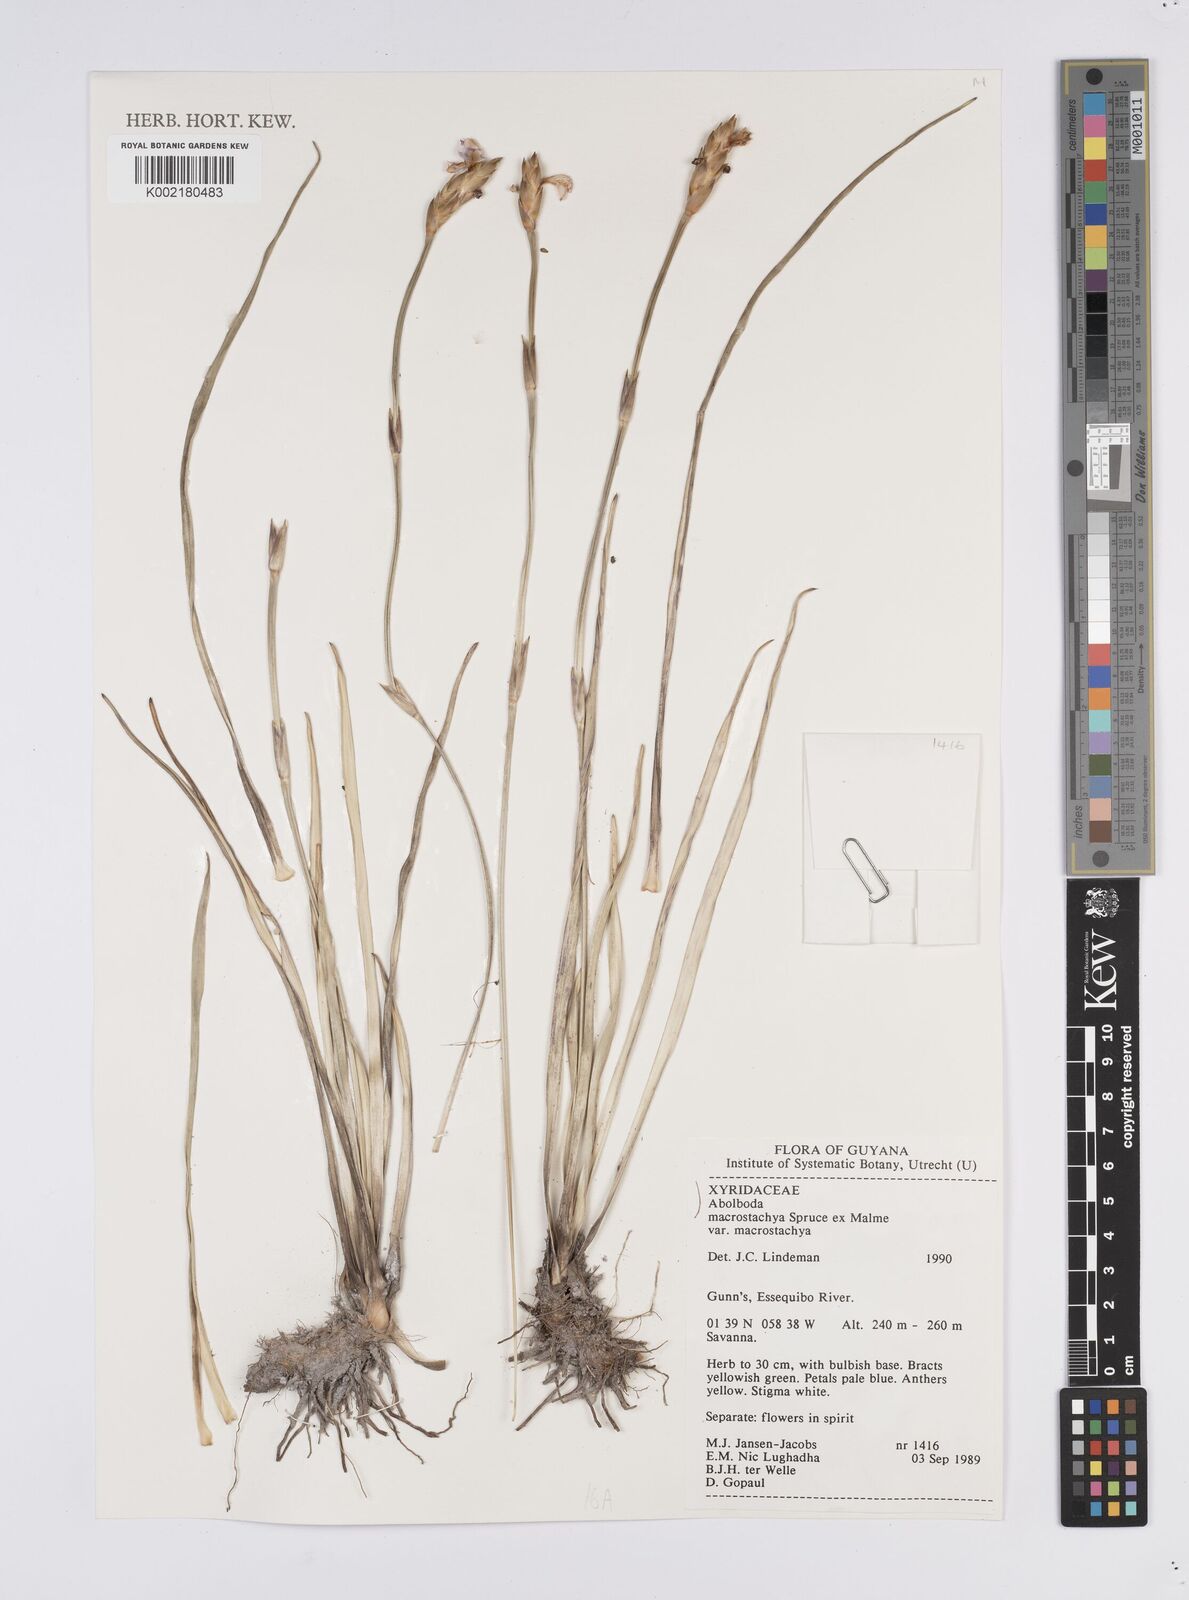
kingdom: Plantae
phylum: Tracheophyta
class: Liliopsida
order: Poales
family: Xyridaceae
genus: Abolboda
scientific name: Abolboda macrostachya
